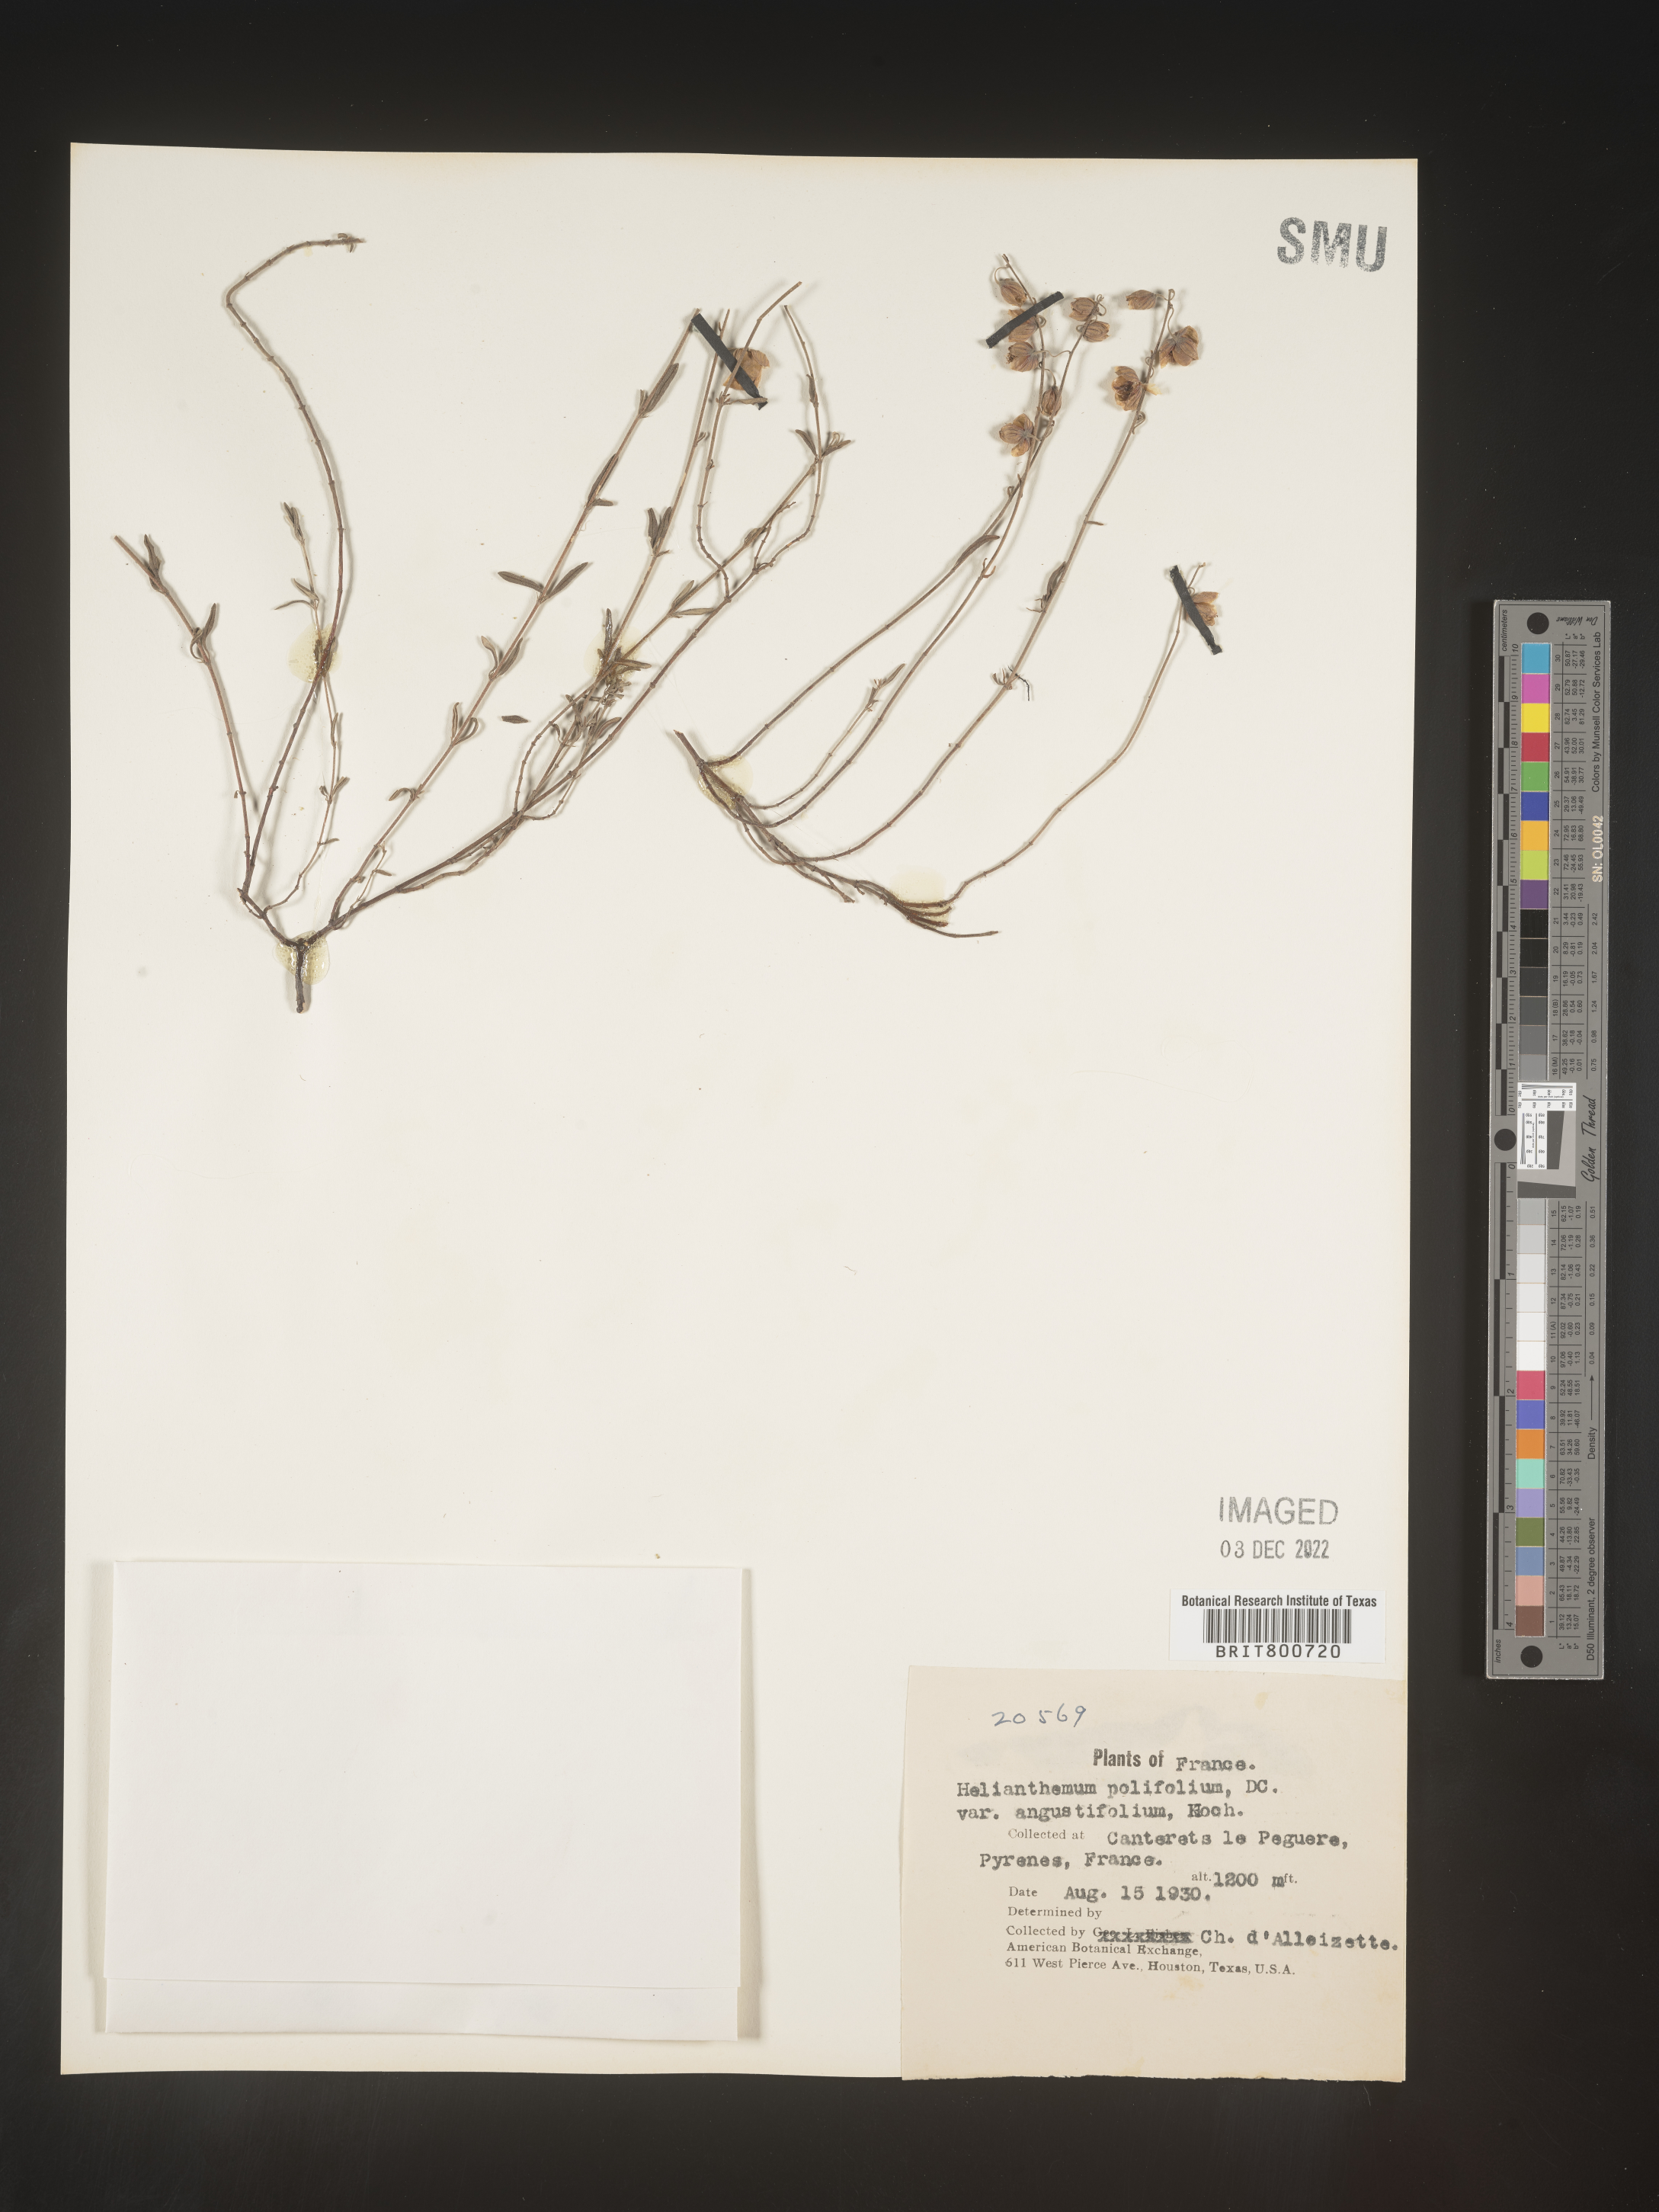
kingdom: Plantae
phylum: Tracheophyta
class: Magnoliopsida
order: Malvales
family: Cistaceae
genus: Helianthemum
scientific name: Helianthemum
